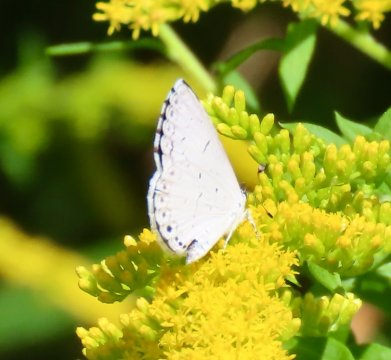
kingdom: Animalia
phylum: Arthropoda
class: Insecta
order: Lepidoptera
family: Lycaenidae
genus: Cyaniris
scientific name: Cyaniris neglecta
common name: Summer Azure
